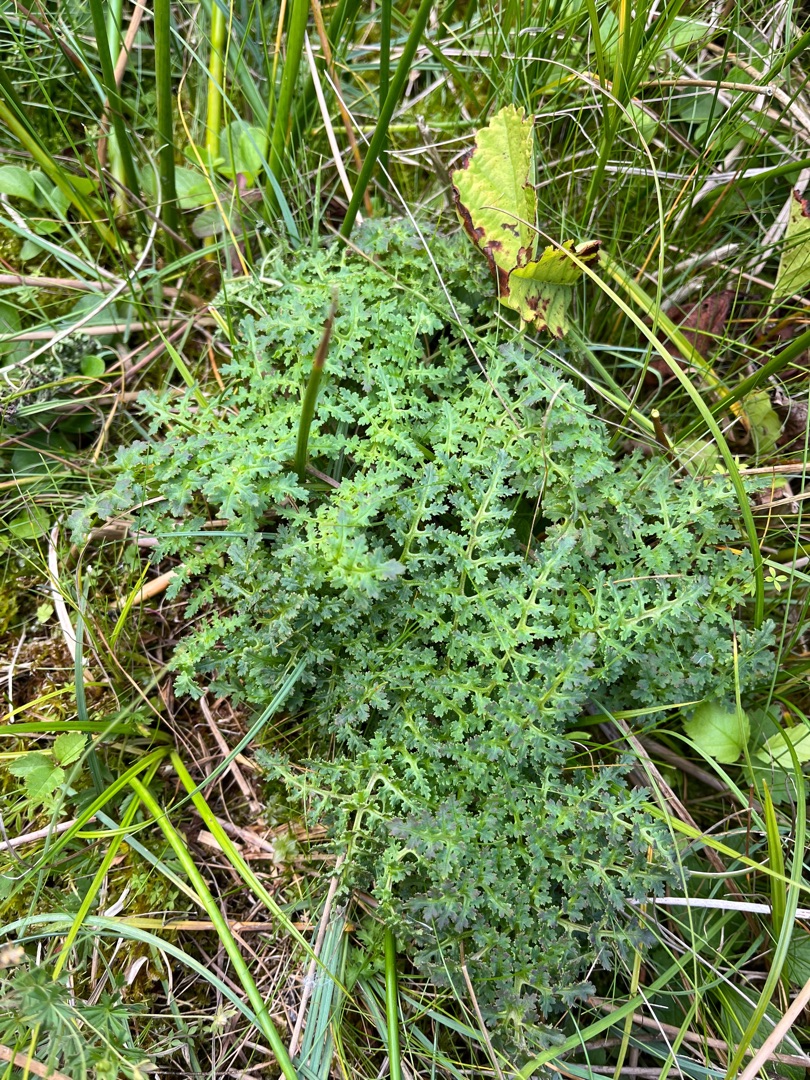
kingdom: Plantae
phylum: Tracheophyta
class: Magnoliopsida
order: Lamiales
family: Orobanchaceae
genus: Pedicularis
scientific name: Pedicularis palustris
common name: Eng-troldurt
